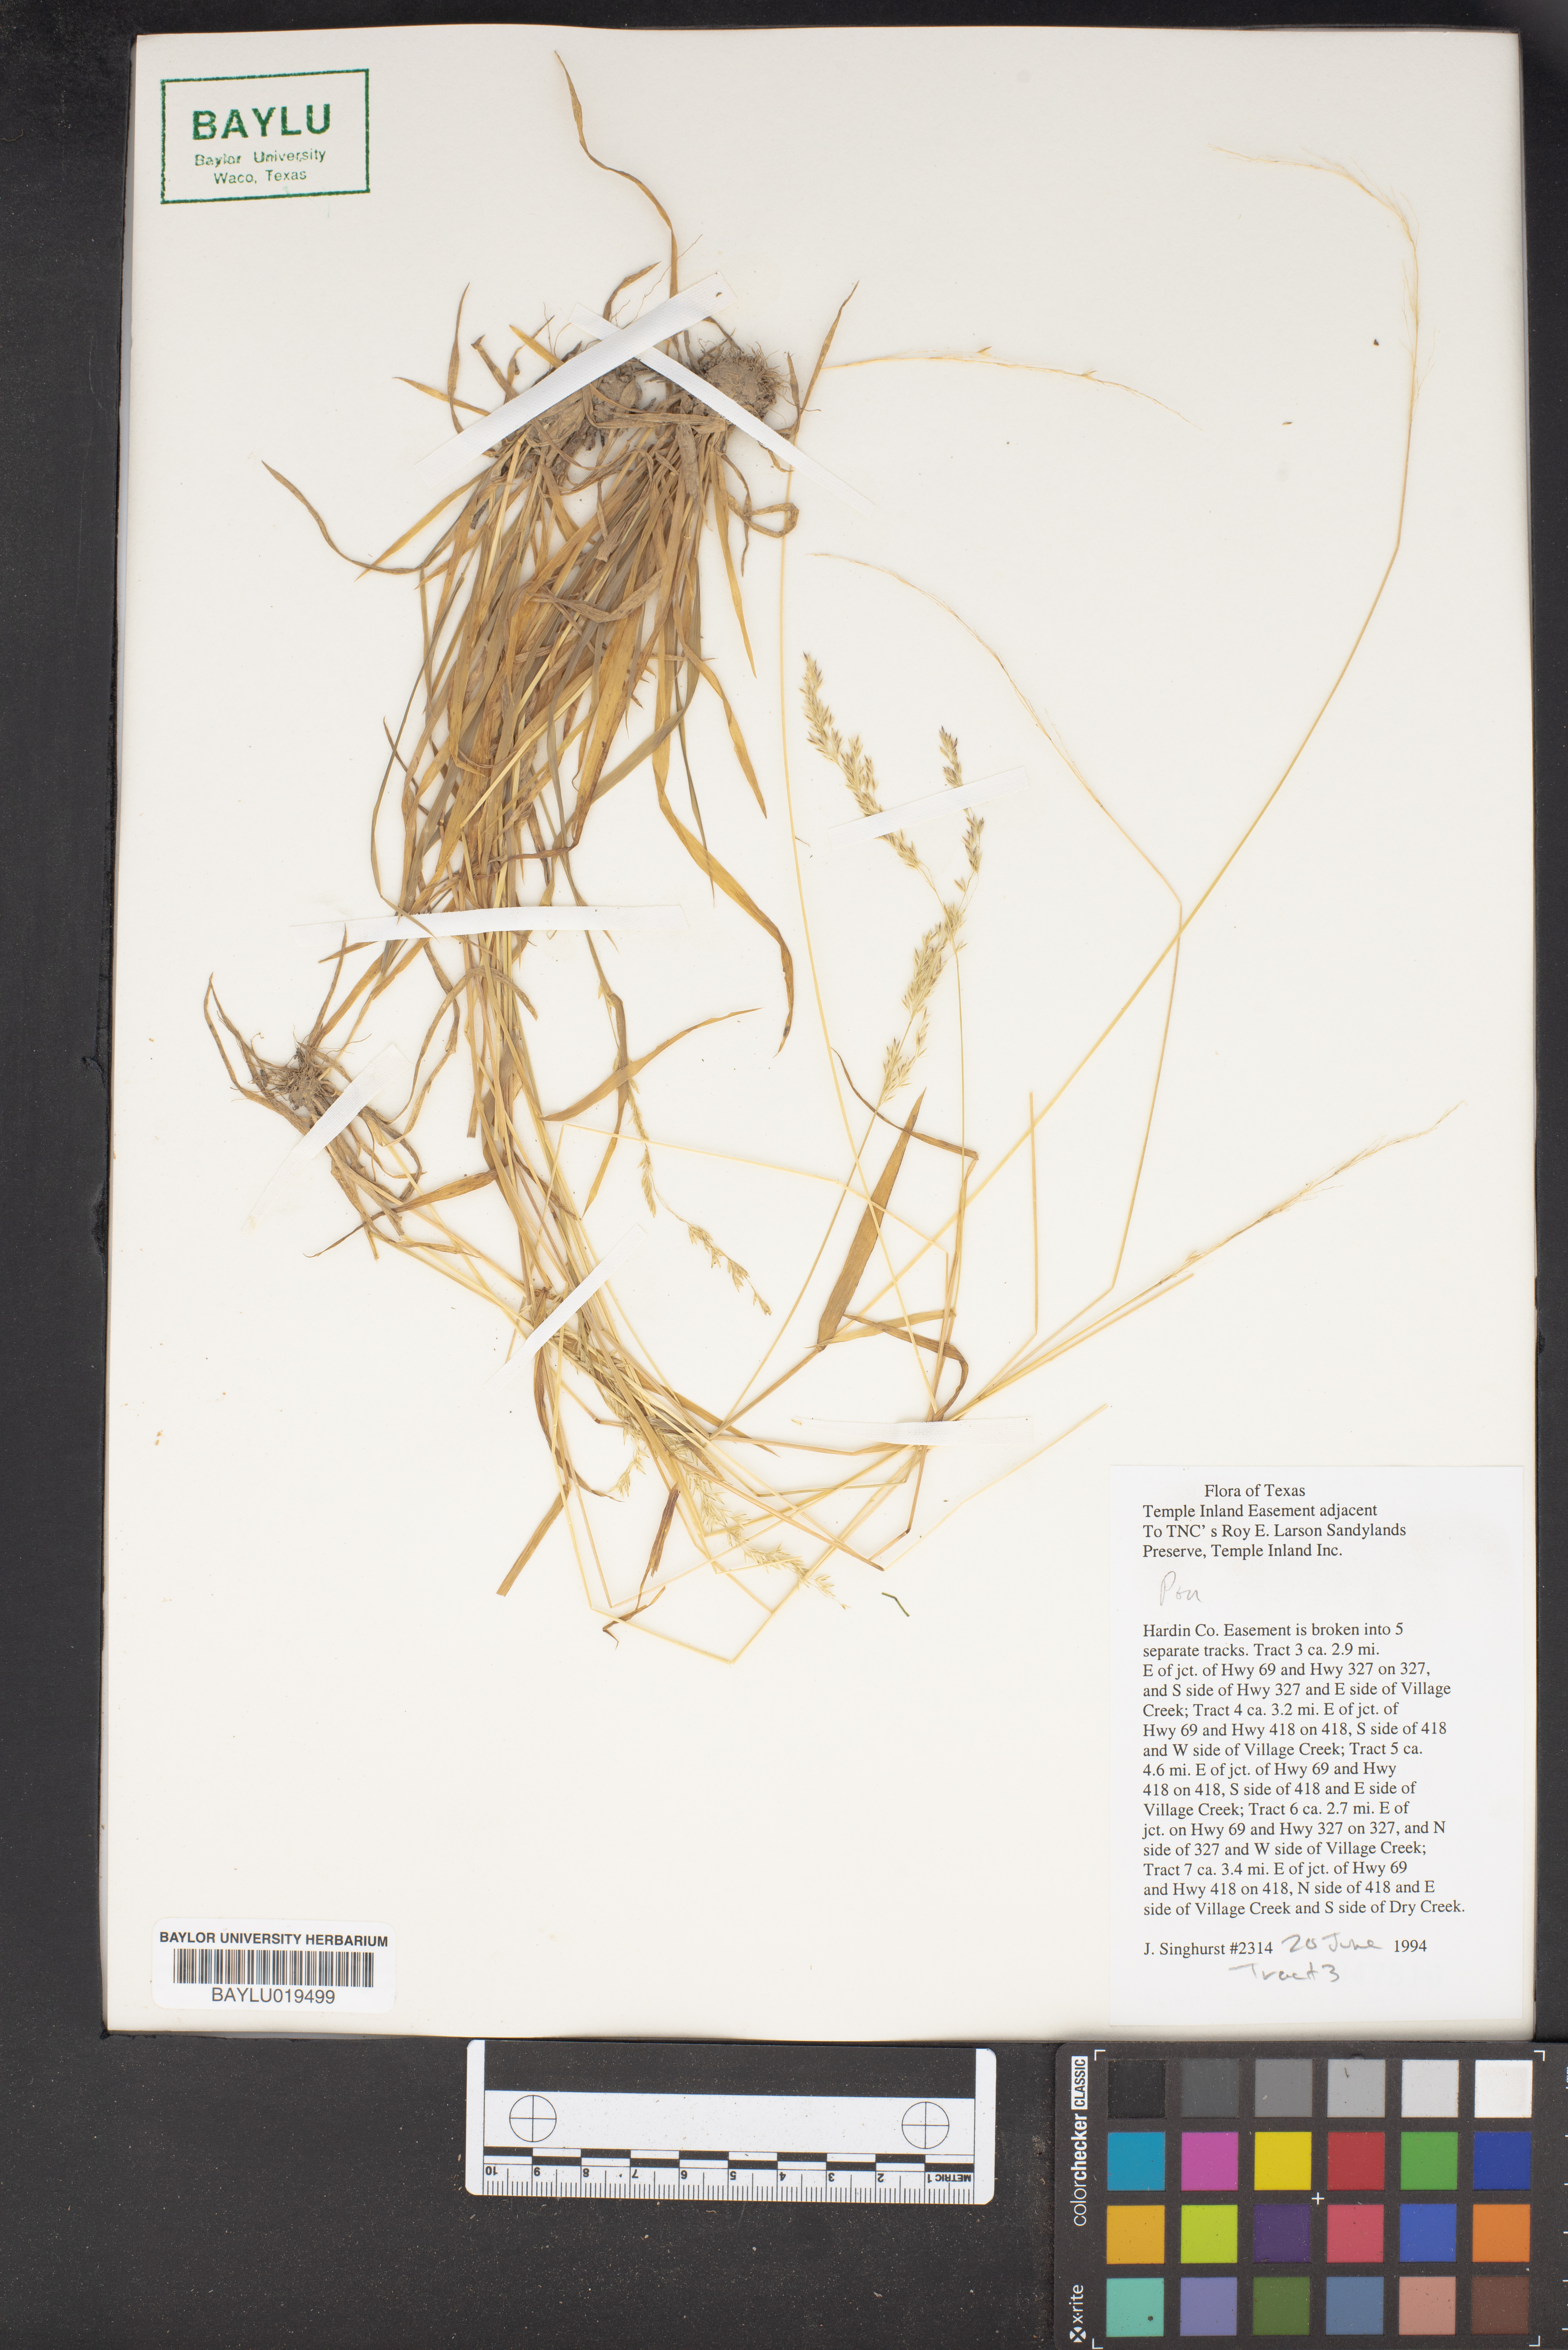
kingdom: Plantae
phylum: Tracheophyta
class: Liliopsida
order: Poales
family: Poaceae
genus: Poa
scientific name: Poa
